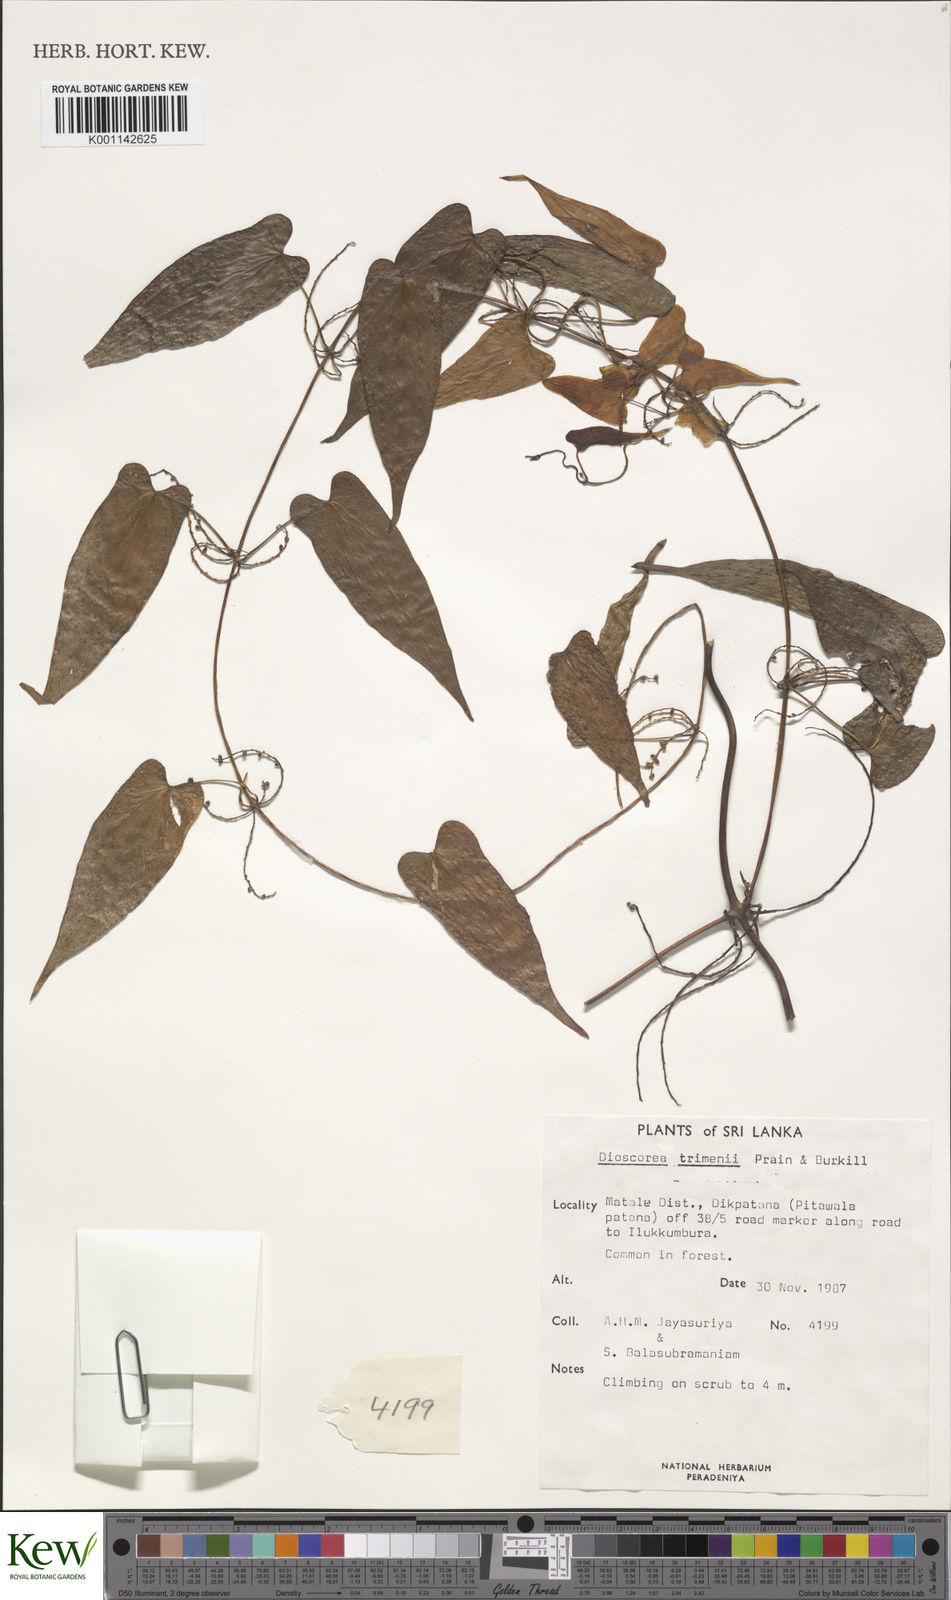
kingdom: Plantae
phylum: Tracheophyta
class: Liliopsida
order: Dioscoreales
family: Dioscoreaceae
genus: Dioscorea
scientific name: Dioscorea trimenii
